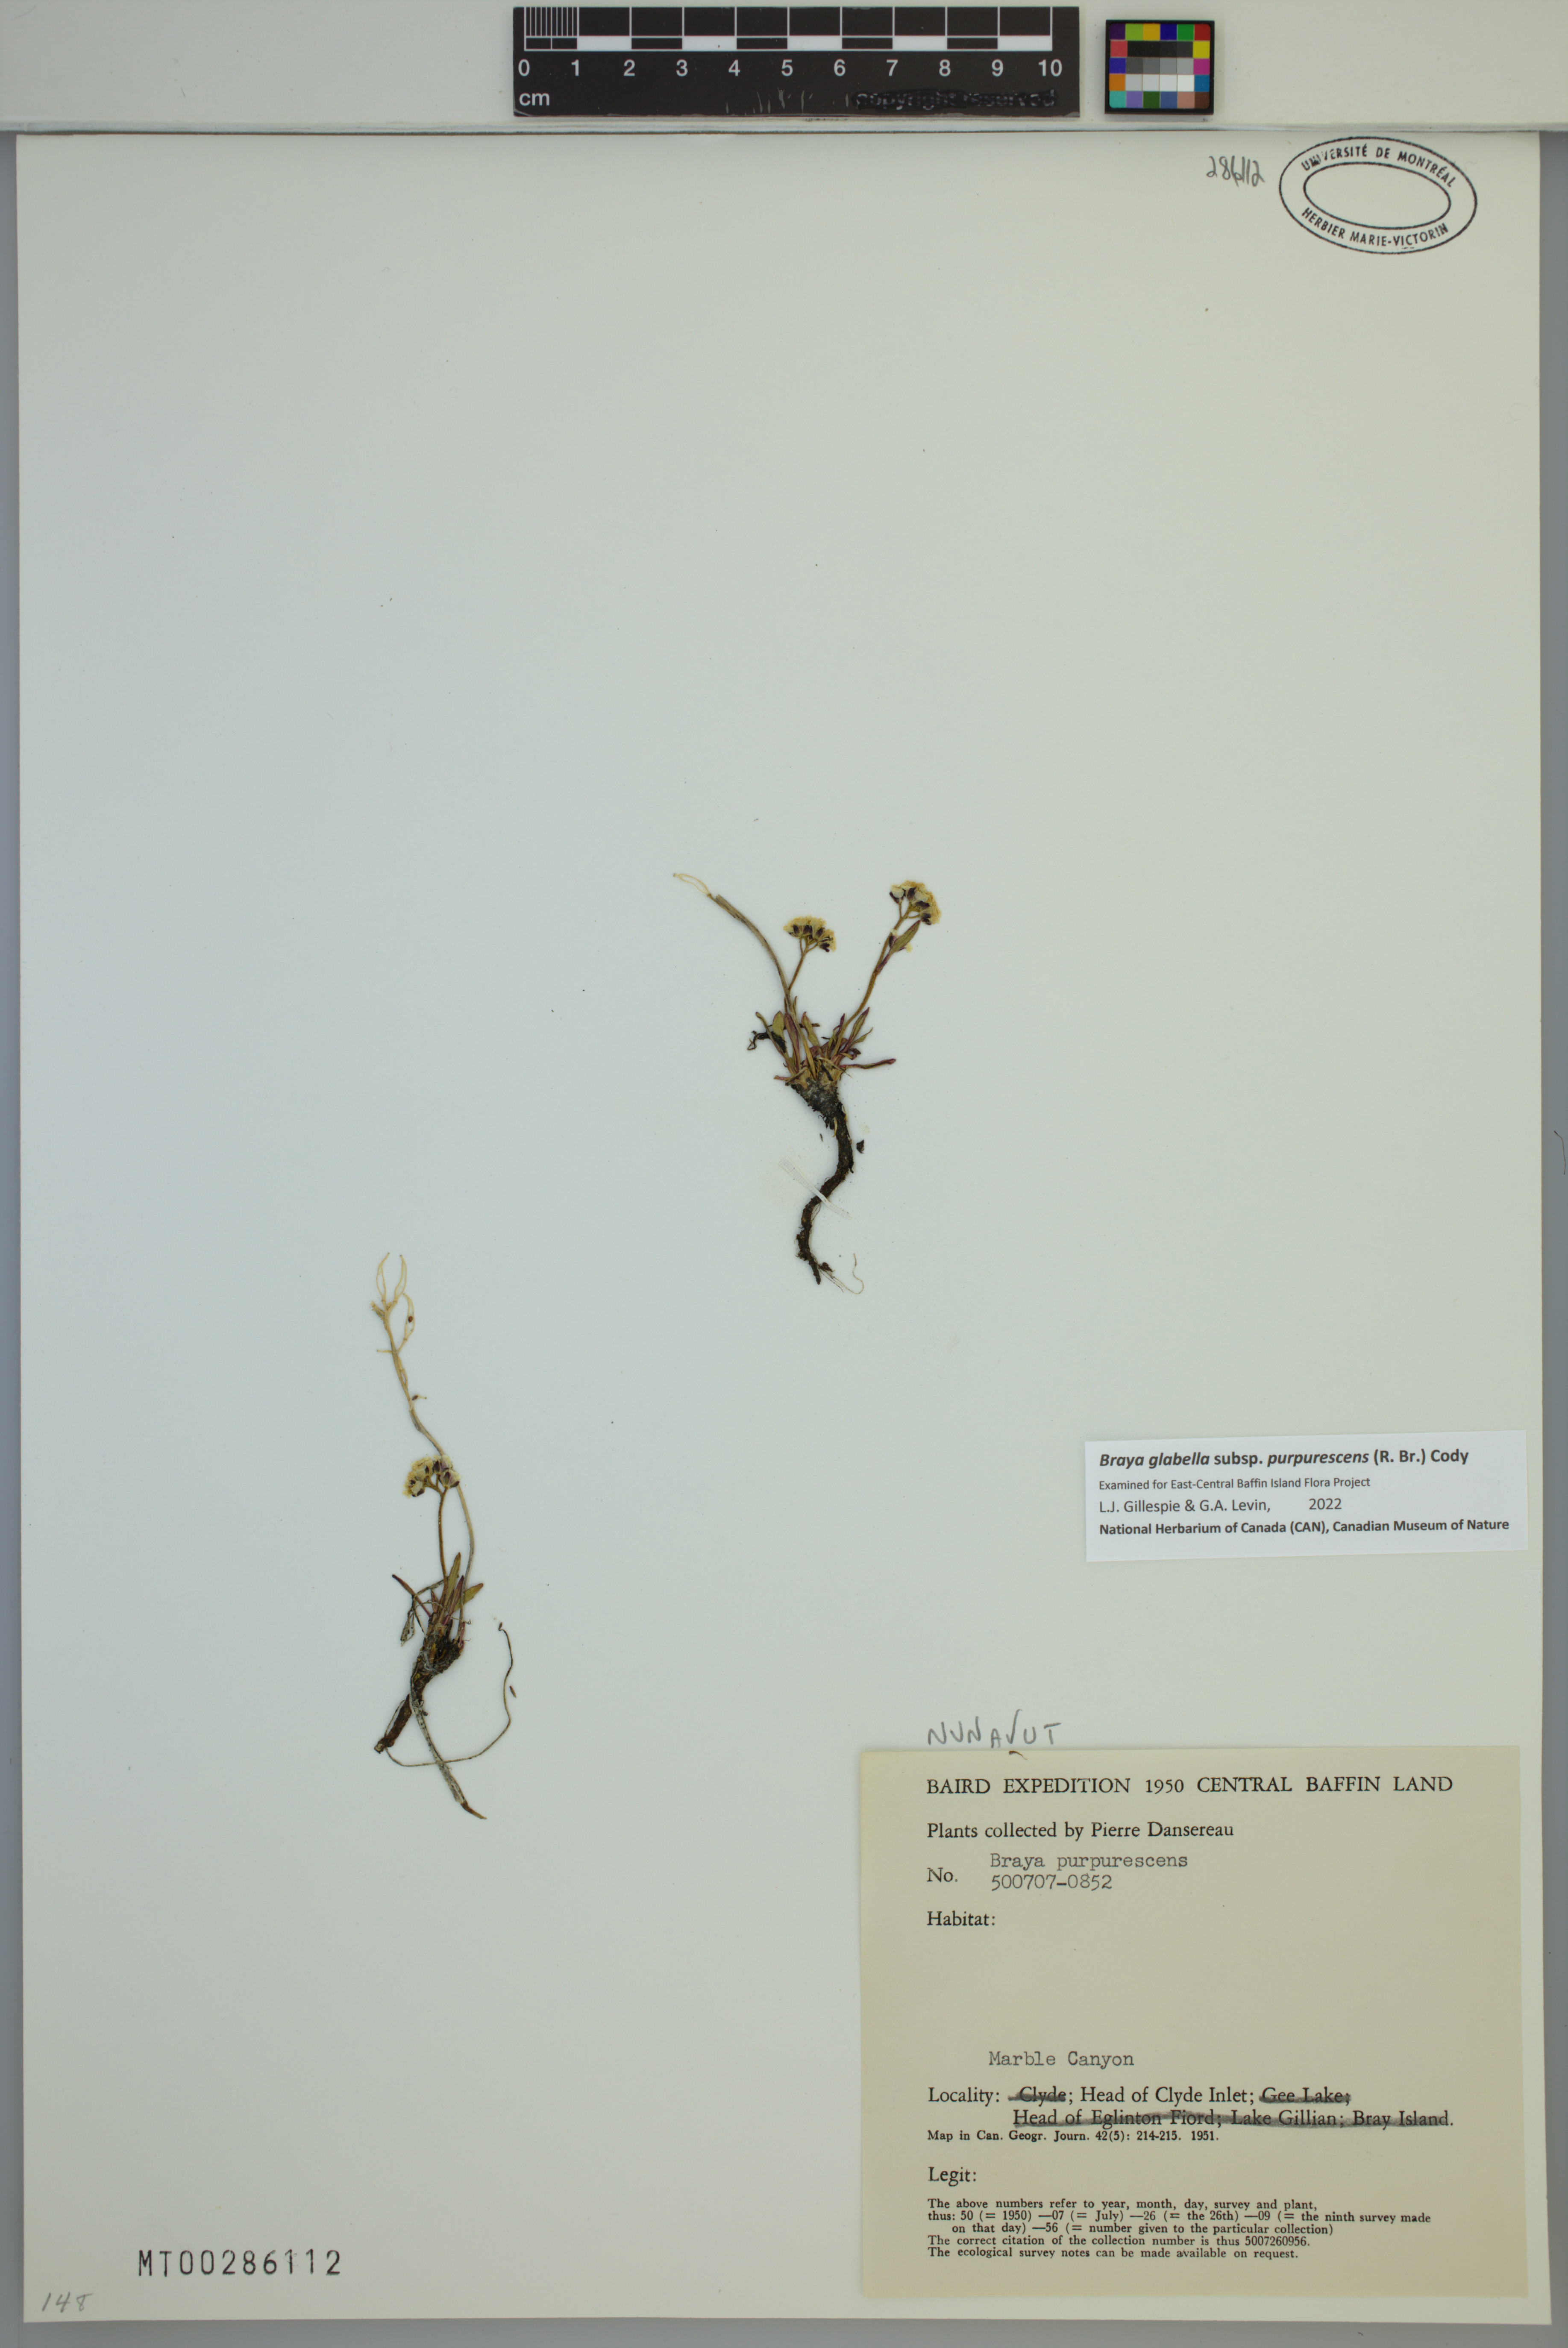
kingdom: Plantae
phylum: Tracheophyta
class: Magnoliopsida
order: Brassicales
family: Brassicaceae
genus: Braya
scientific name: Braya purpurascens
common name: Alpine braya
